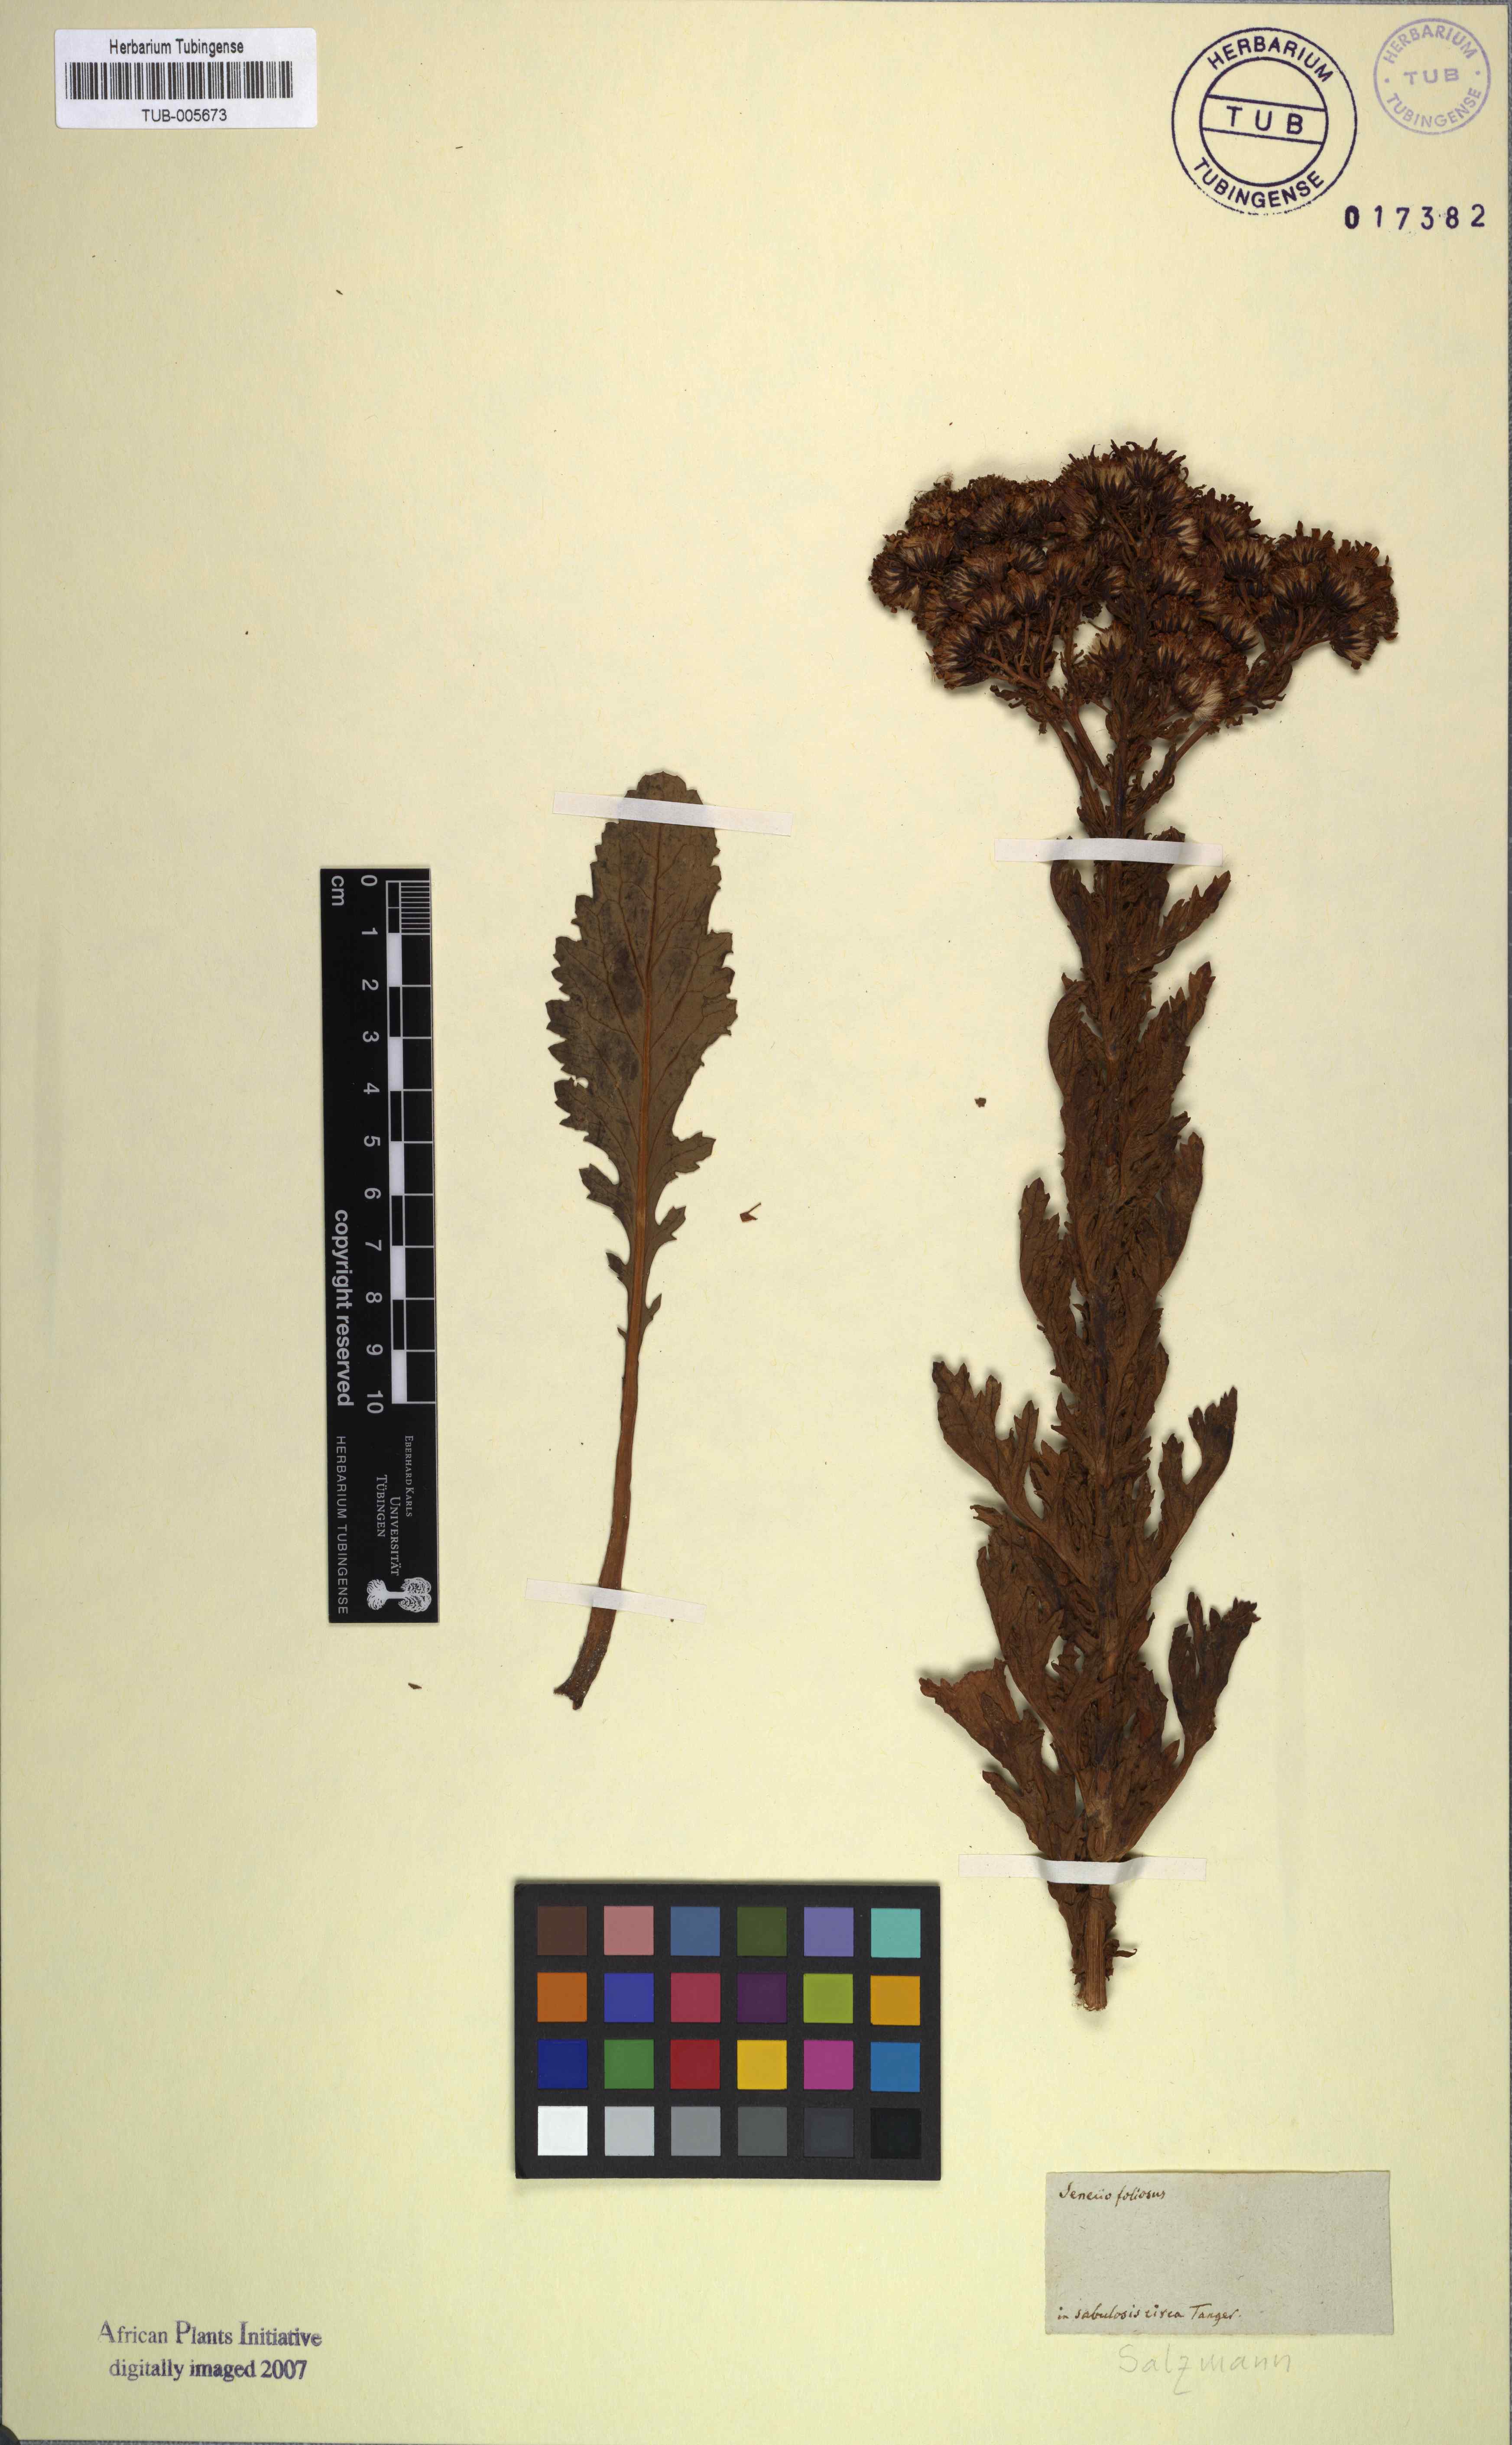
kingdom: Plantae
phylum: Tracheophyta
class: Magnoliopsida
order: Asterales
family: Asteraceae
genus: Jacobaea
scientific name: Jacobaea vulgaris
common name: Stinking willie
